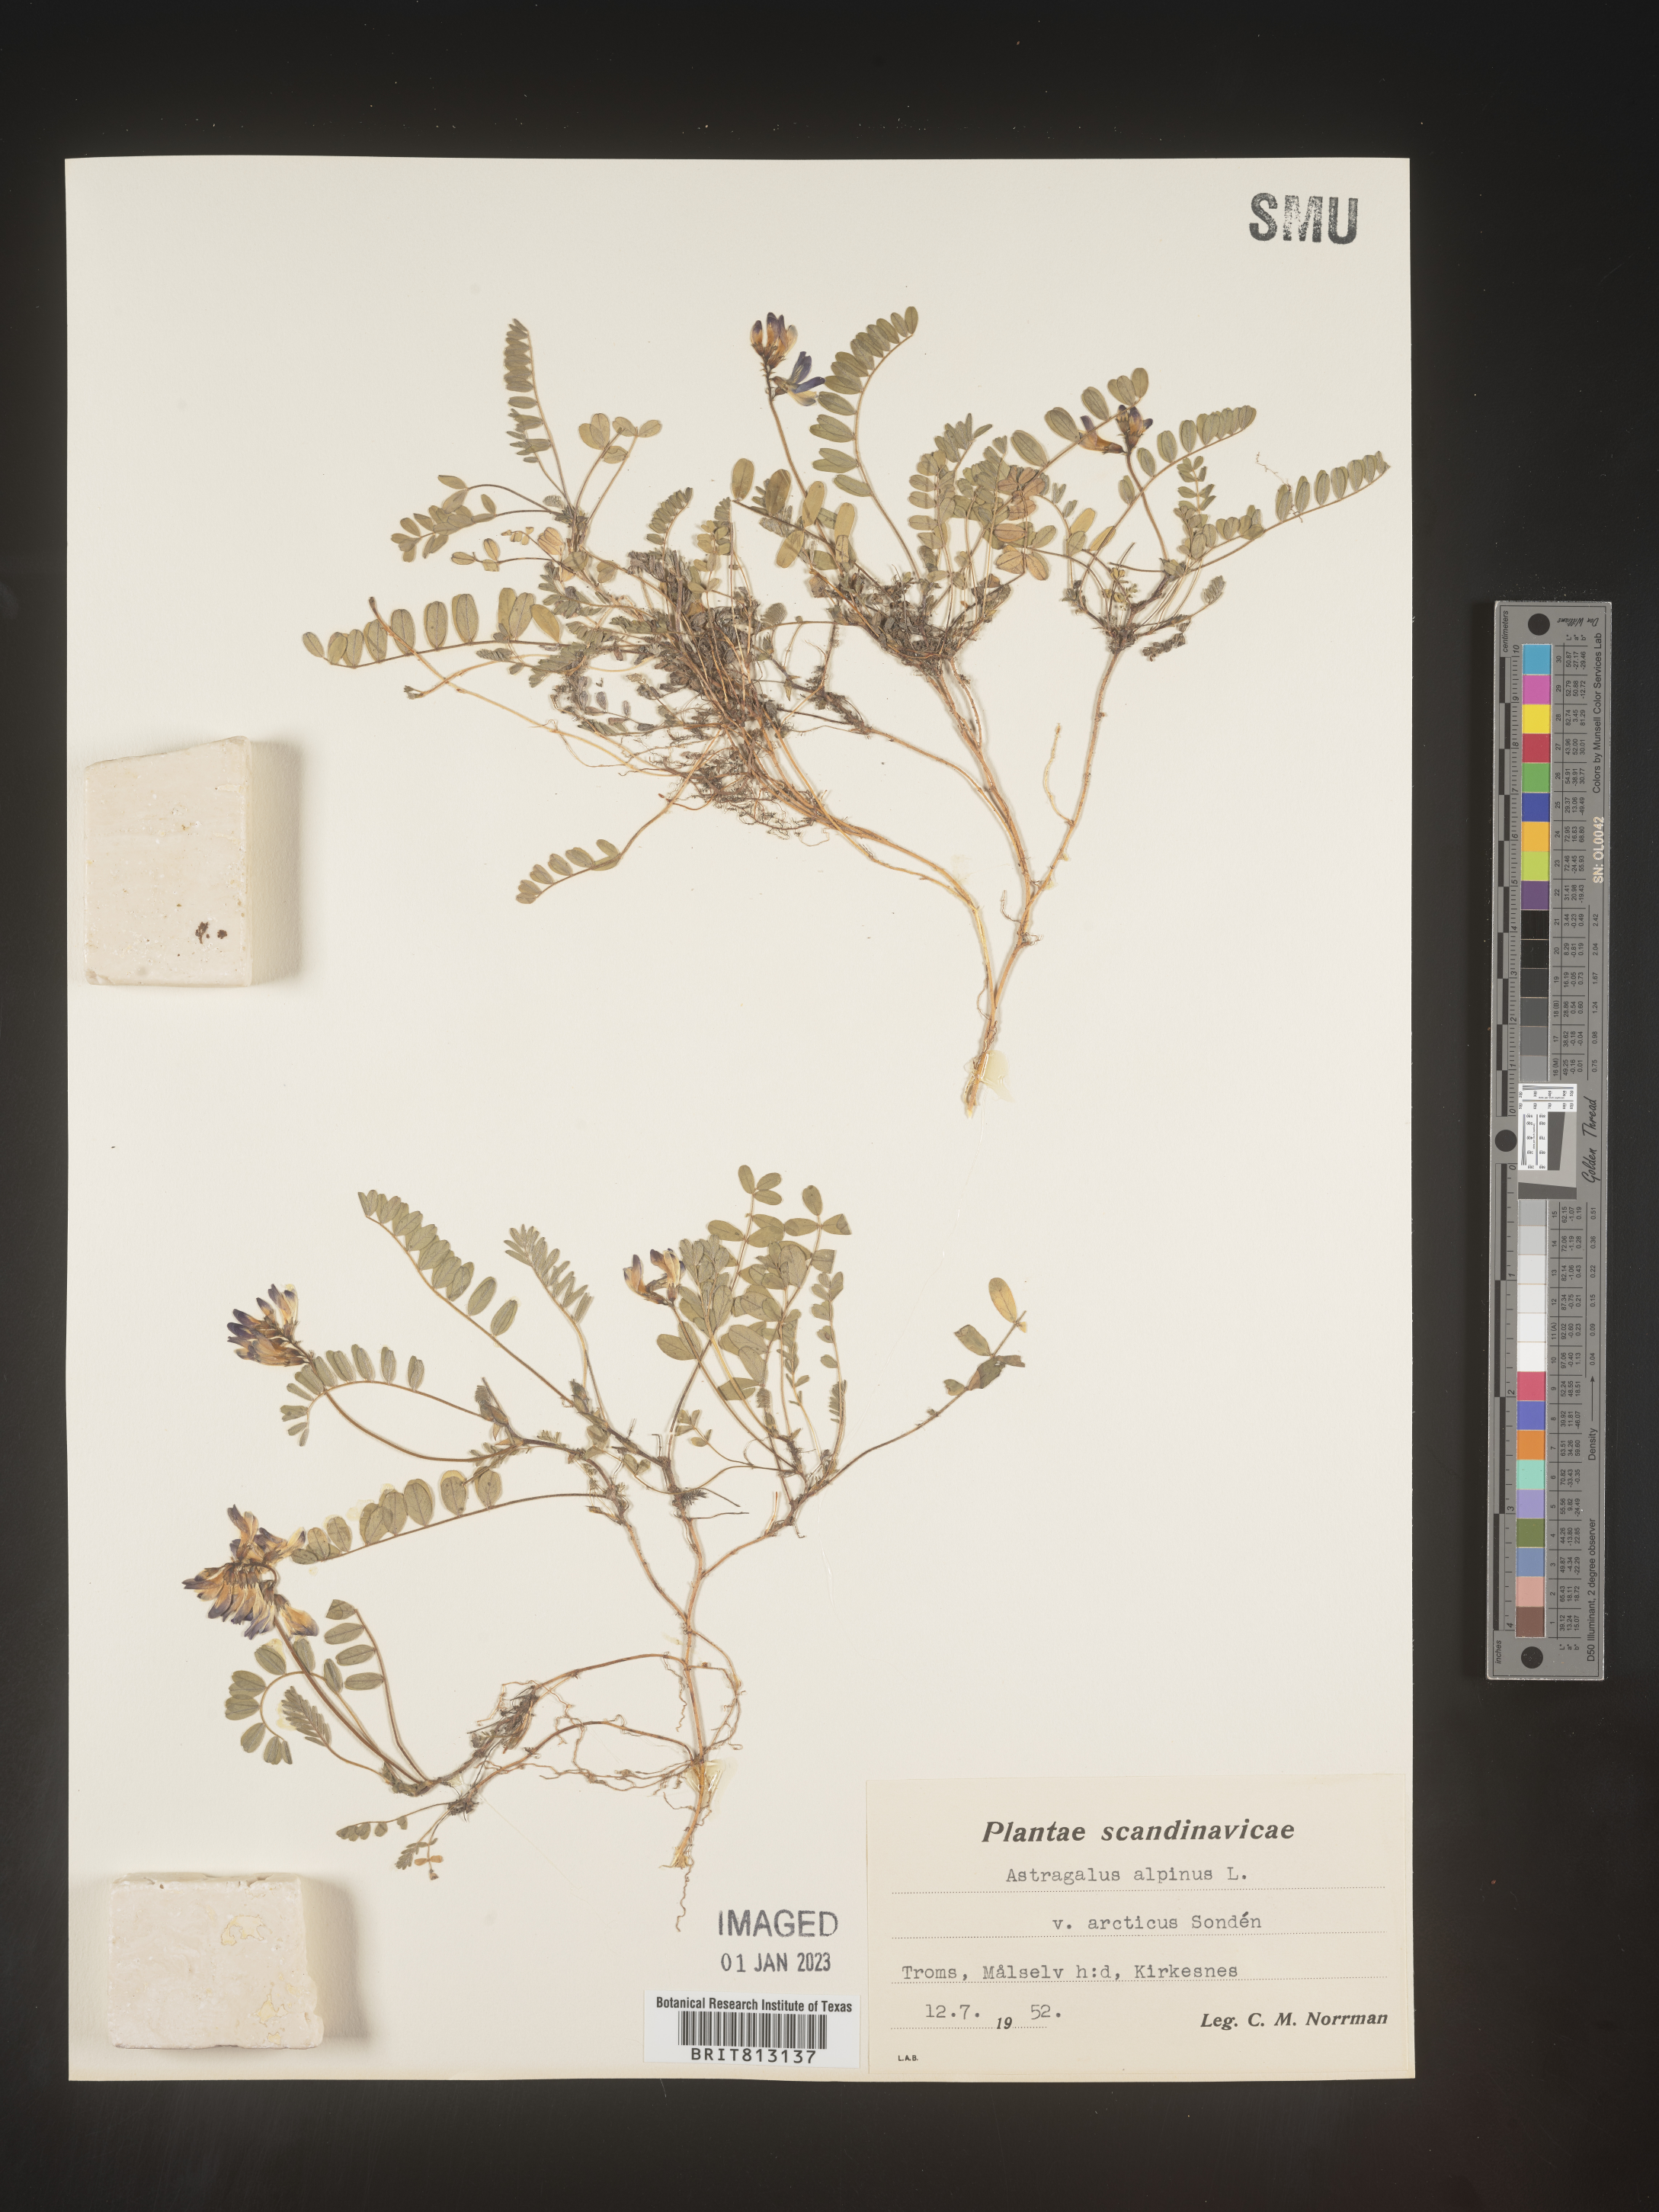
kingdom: Plantae
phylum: Tracheophyta
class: Magnoliopsida
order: Fabales
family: Fabaceae
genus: Astragalus
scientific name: Astragalus
